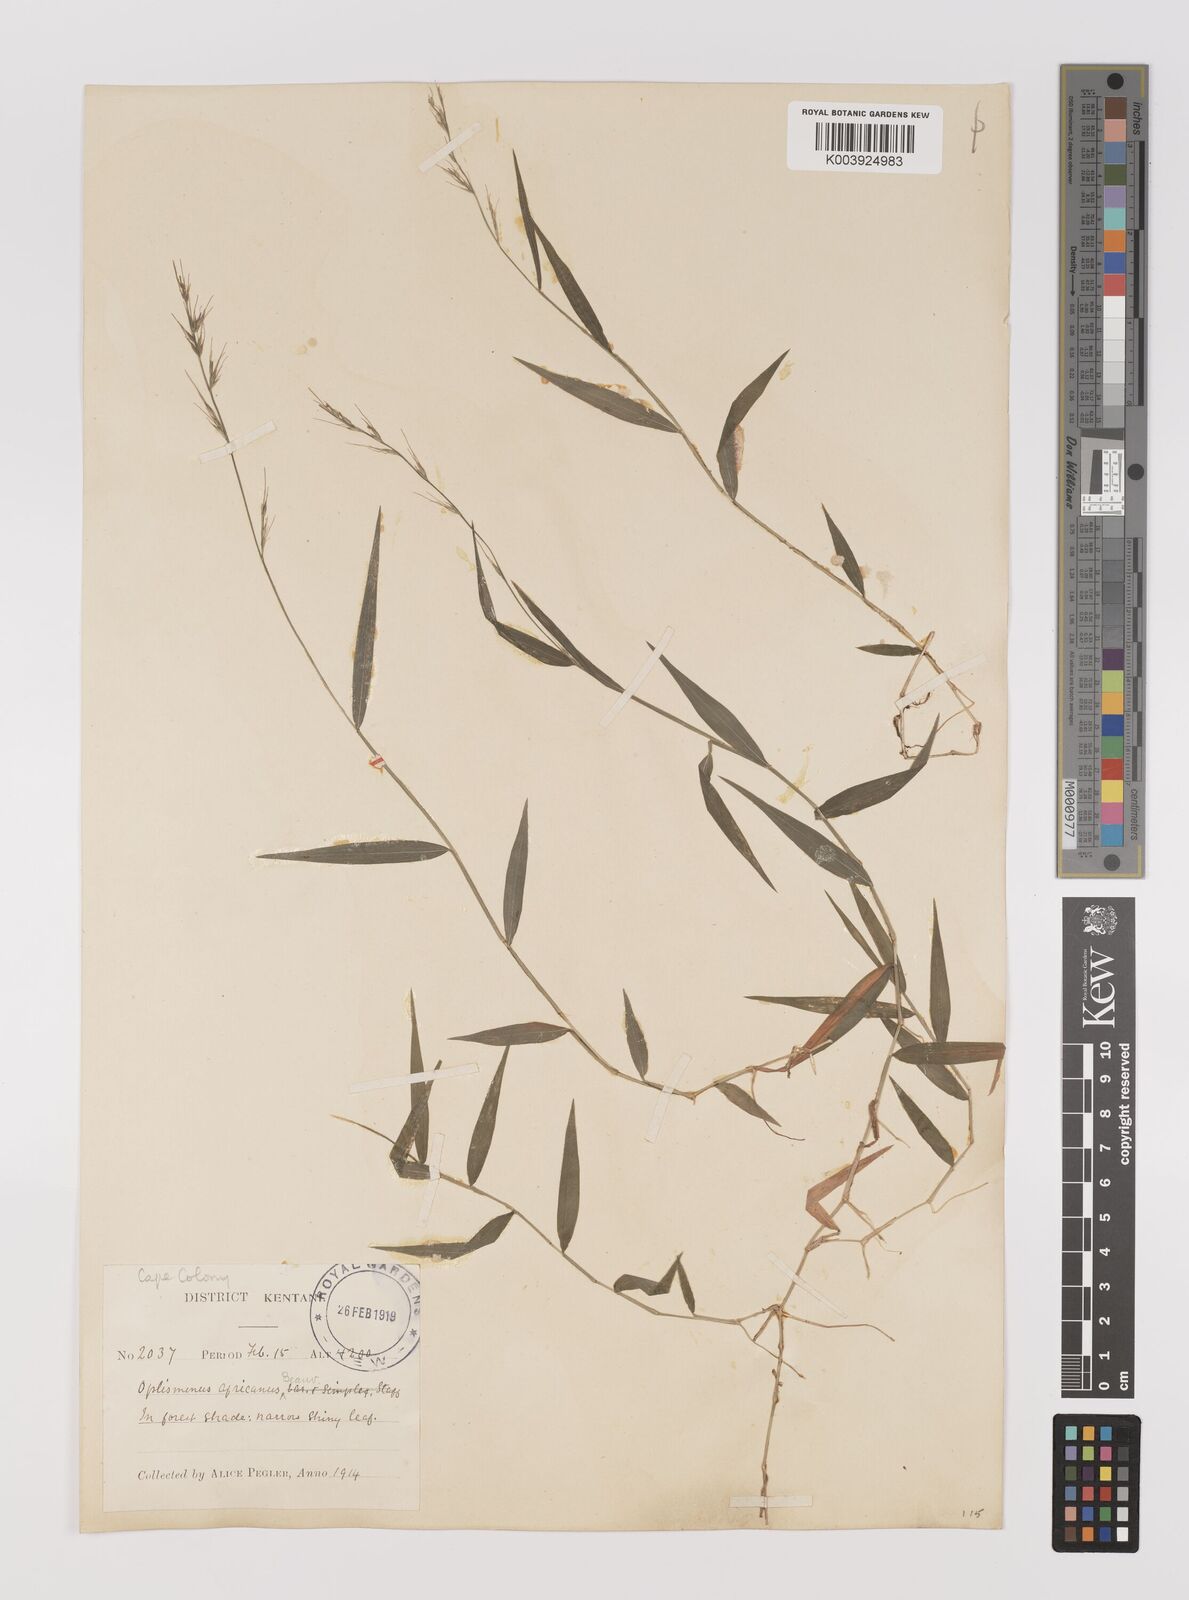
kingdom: Plantae
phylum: Tracheophyta
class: Liliopsida
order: Poales
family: Poaceae
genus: Oplismenus
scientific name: Oplismenus hirtellus
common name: Basketgrass
